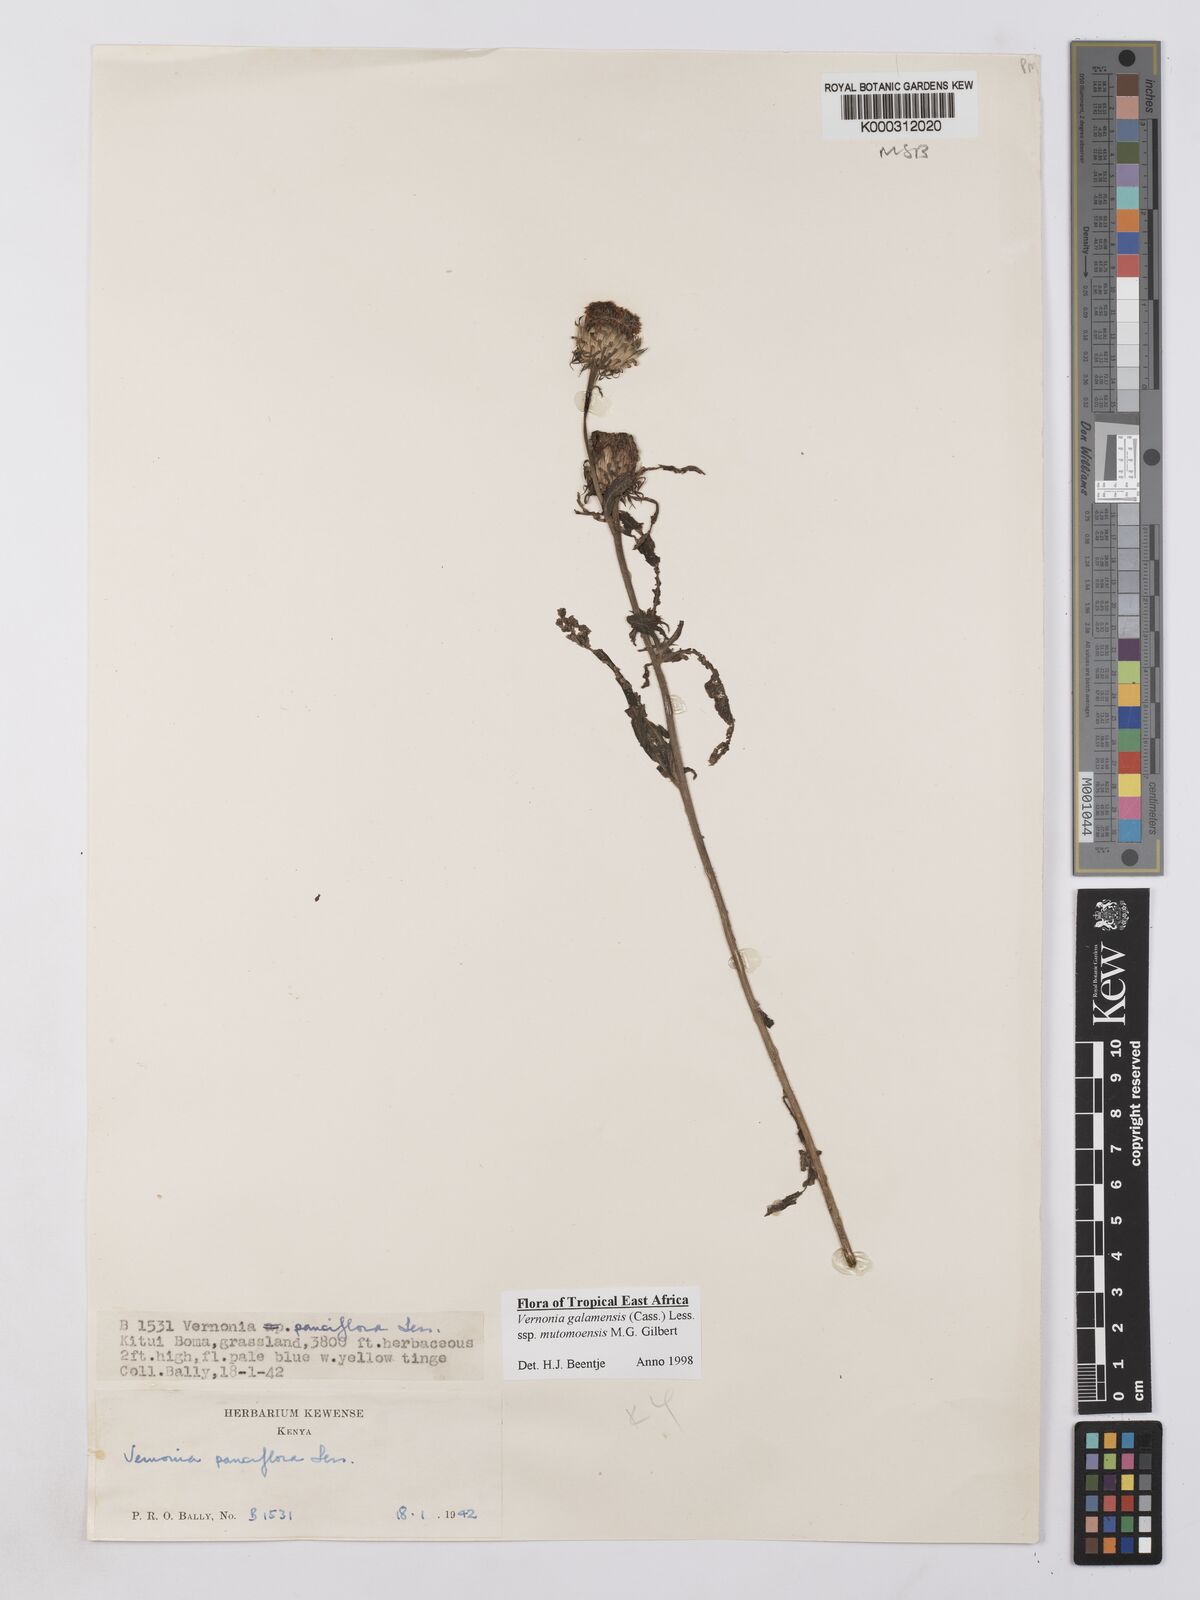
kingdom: Plantae
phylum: Tracheophyta
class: Magnoliopsida
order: Asterales
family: Asteraceae
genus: Vernonia
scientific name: Vernonia galamensis
